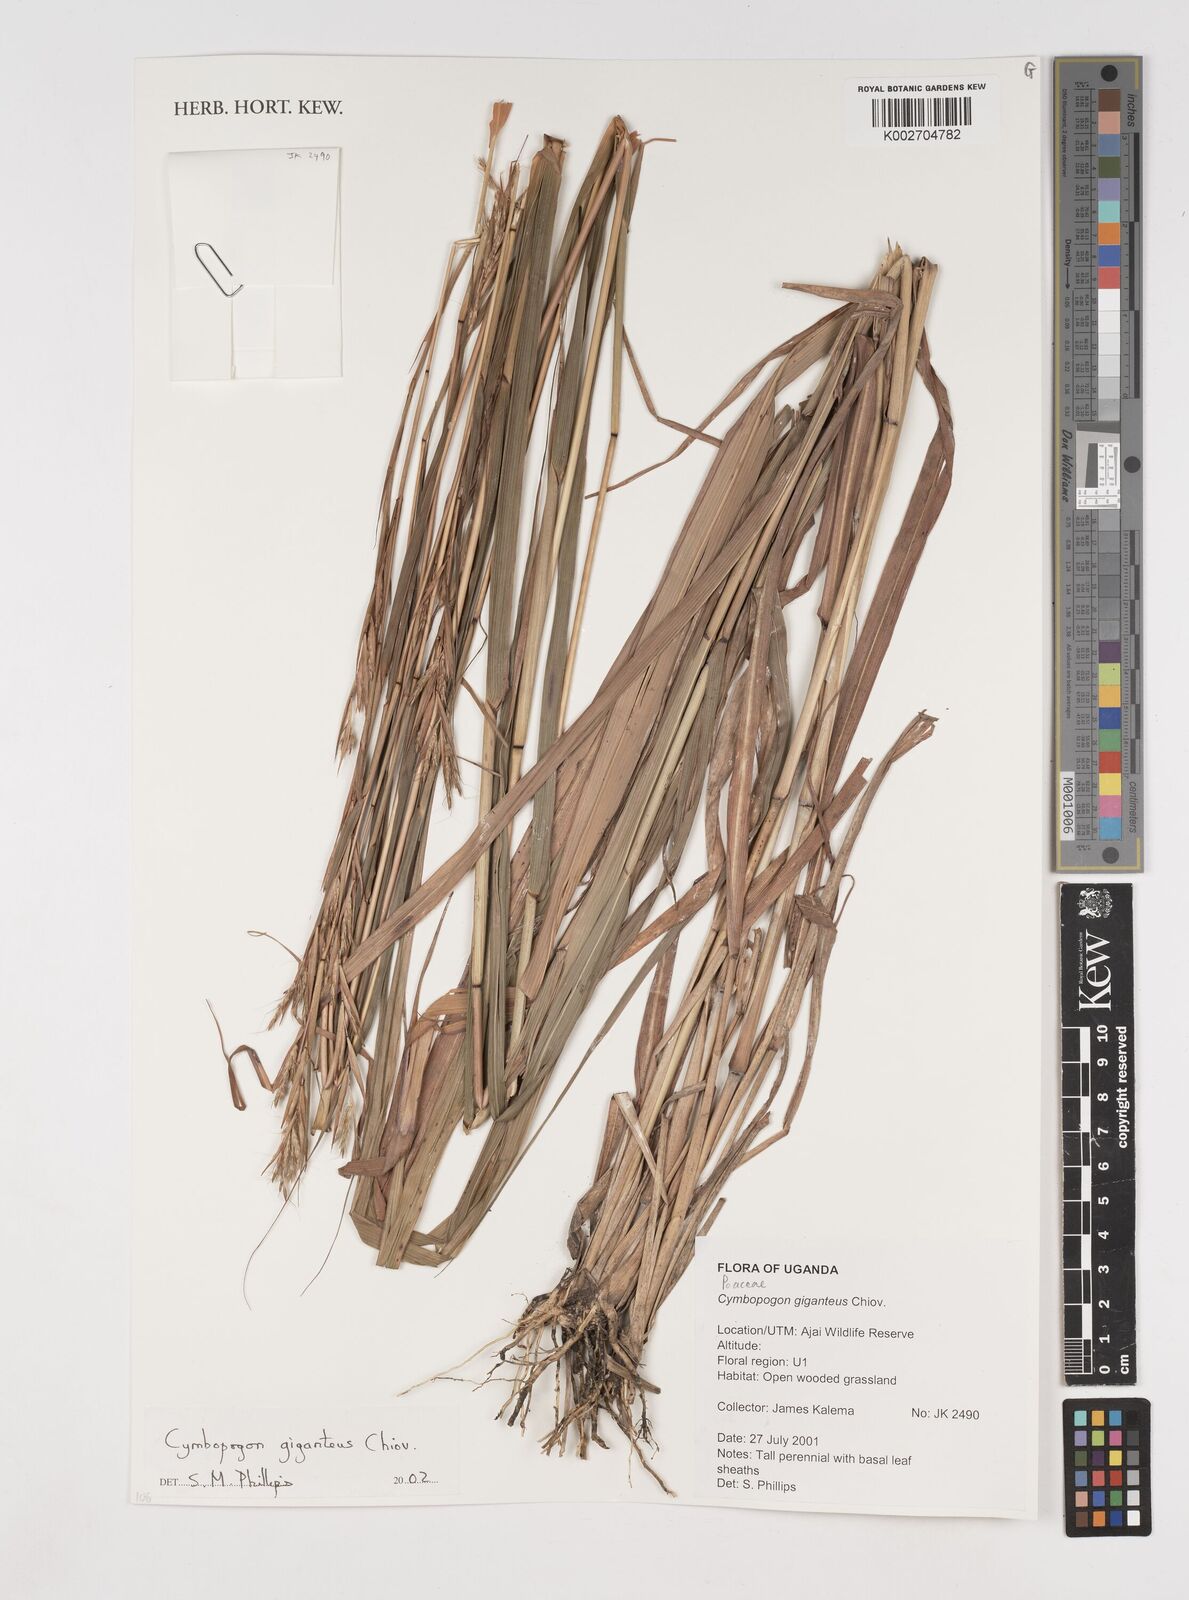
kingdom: Plantae
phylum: Tracheophyta
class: Liliopsida
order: Poales
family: Poaceae
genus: Cymbopogon
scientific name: Cymbopogon giganteus
